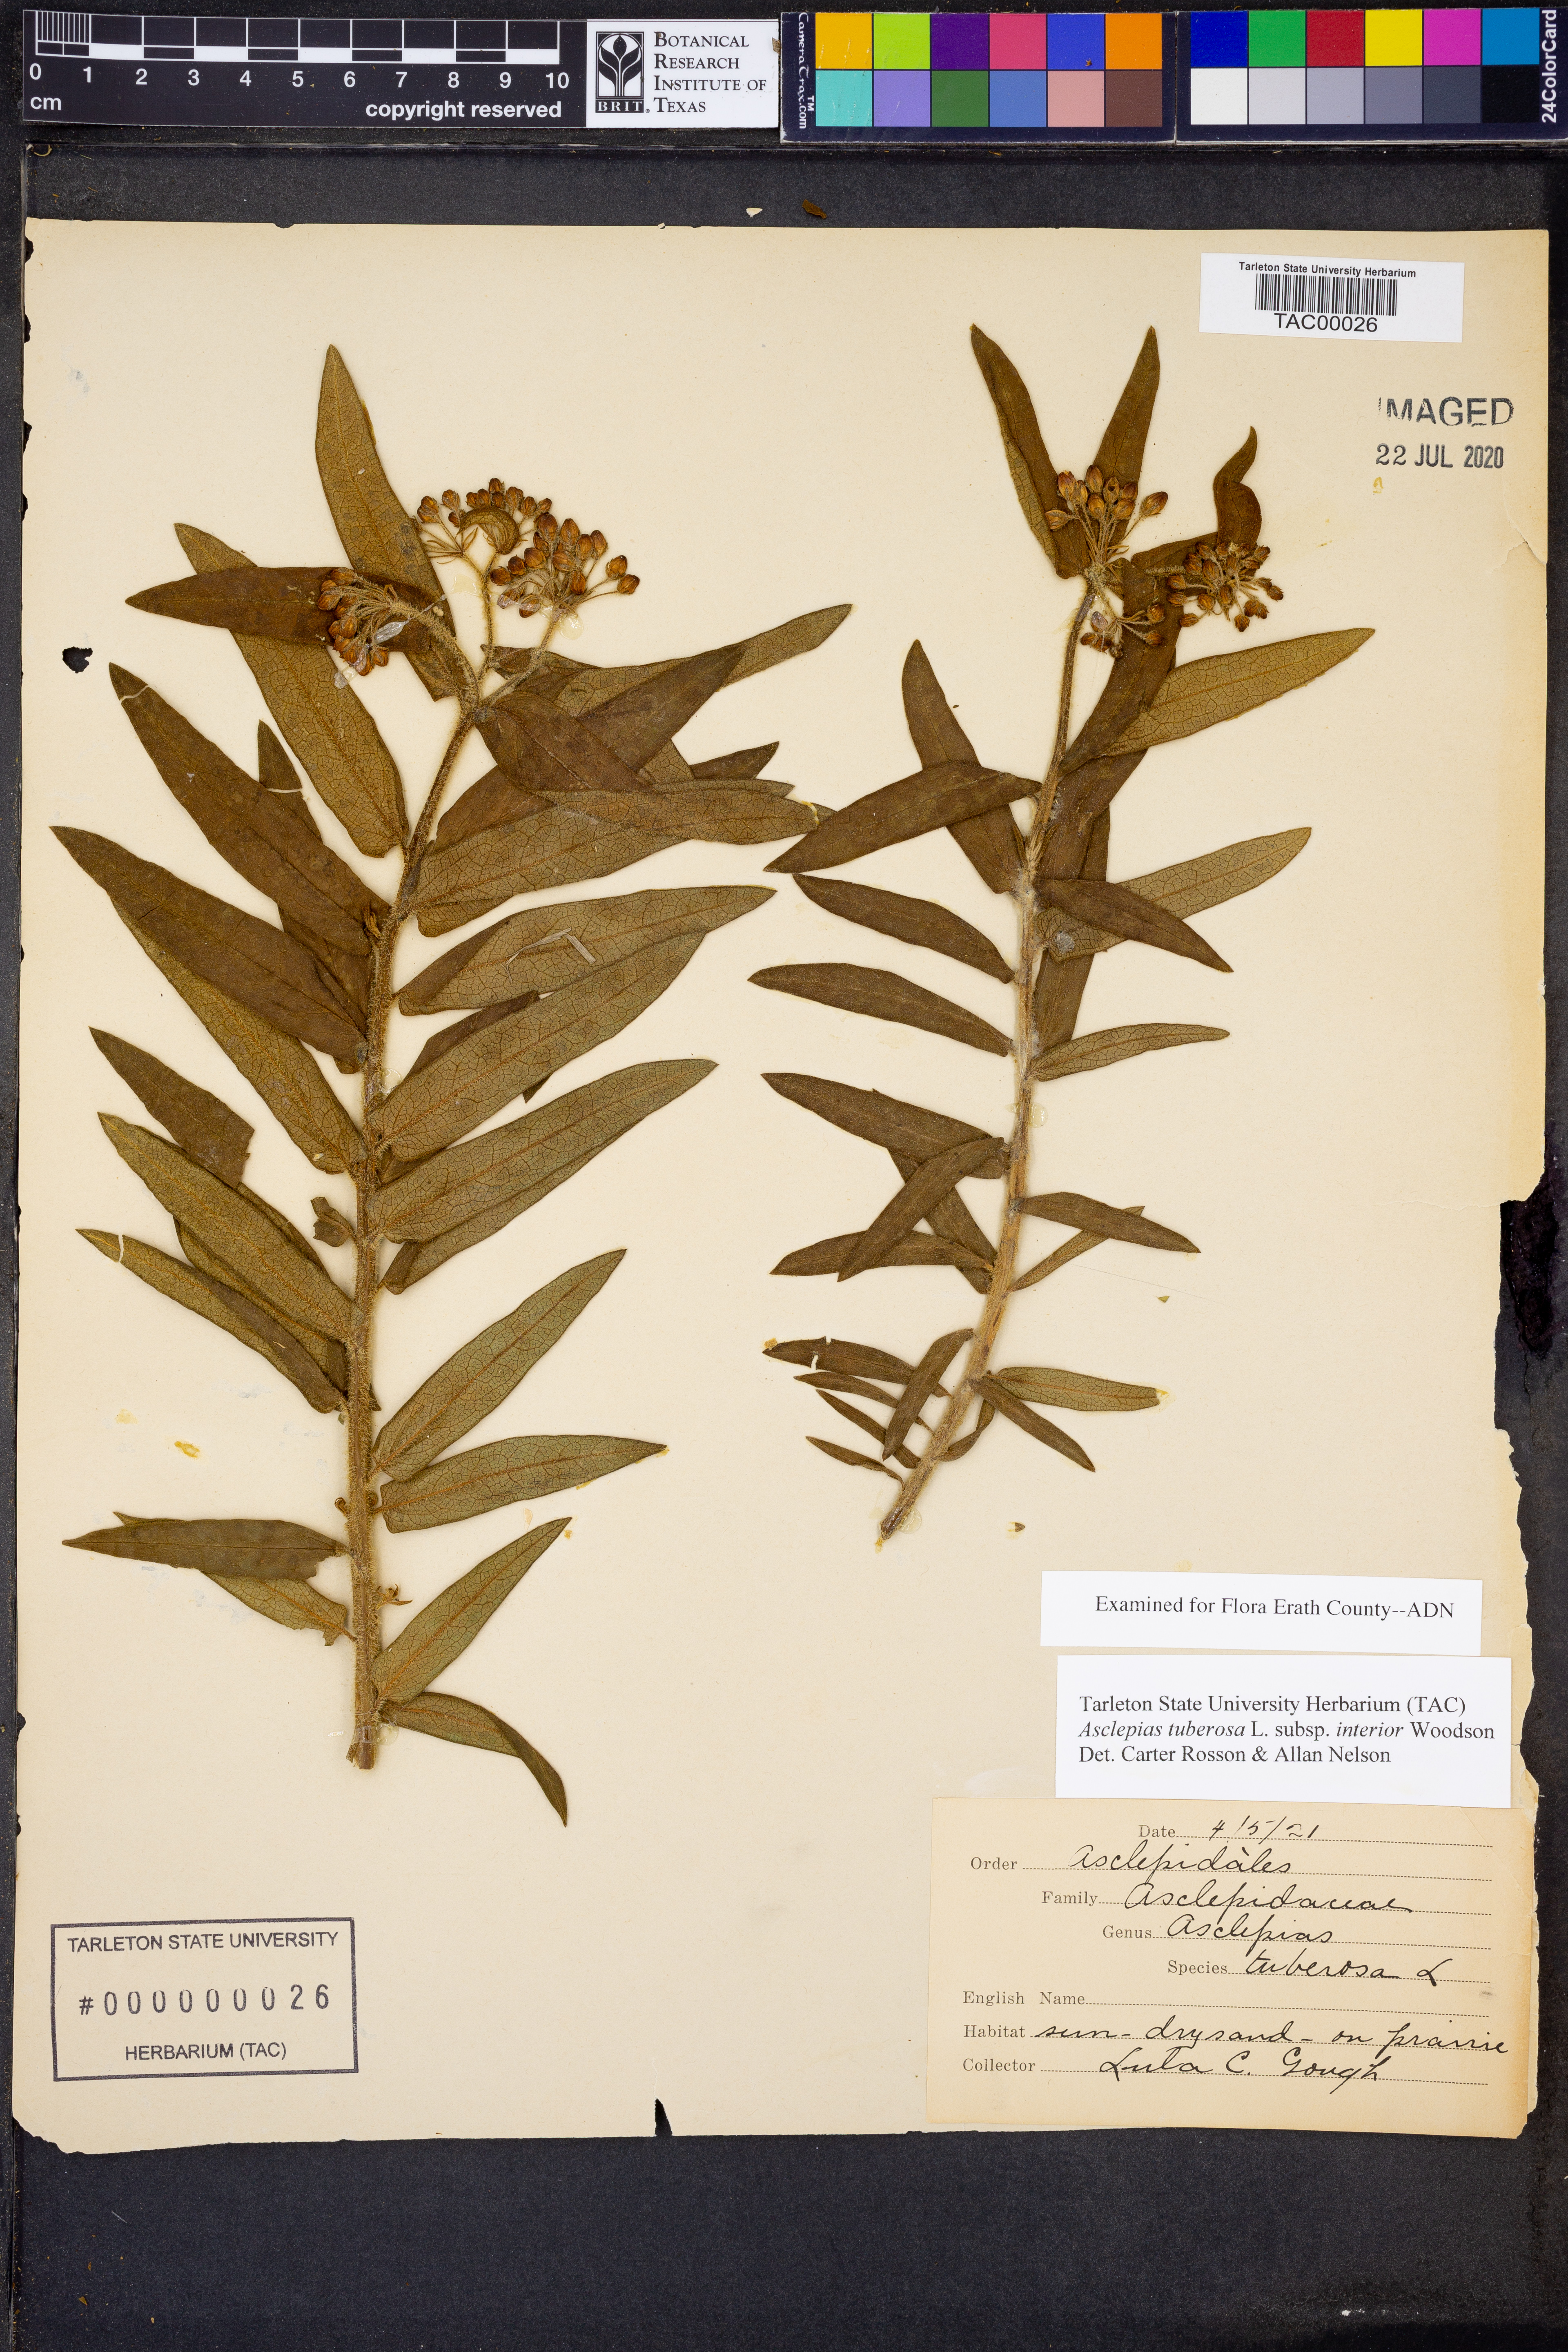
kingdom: Plantae
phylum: Tracheophyta
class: Magnoliopsida
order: Gentianales
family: Apocynaceae
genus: Asclepias
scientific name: Asclepias tuberosa
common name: Butterfly milkweed
